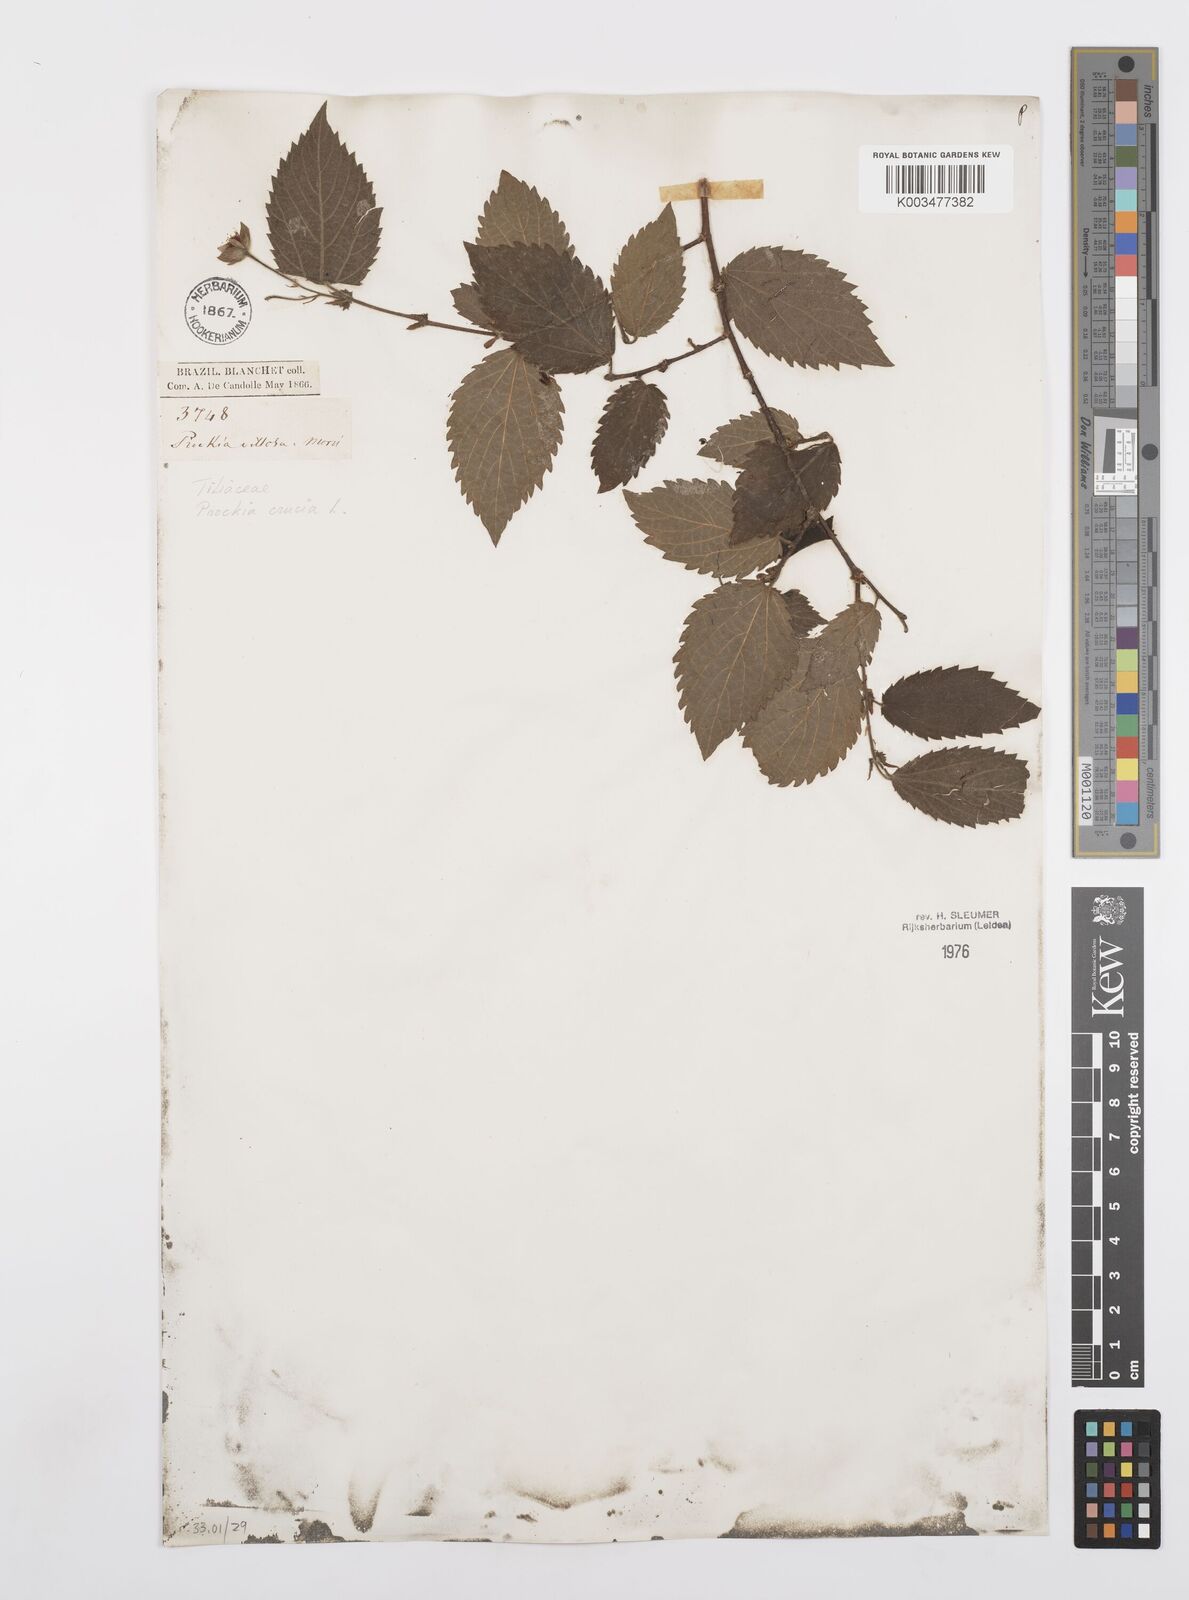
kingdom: Plantae
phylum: Tracheophyta
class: Magnoliopsida
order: Malpighiales
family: Salicaceae
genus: Prockia
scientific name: Prockia crucis
